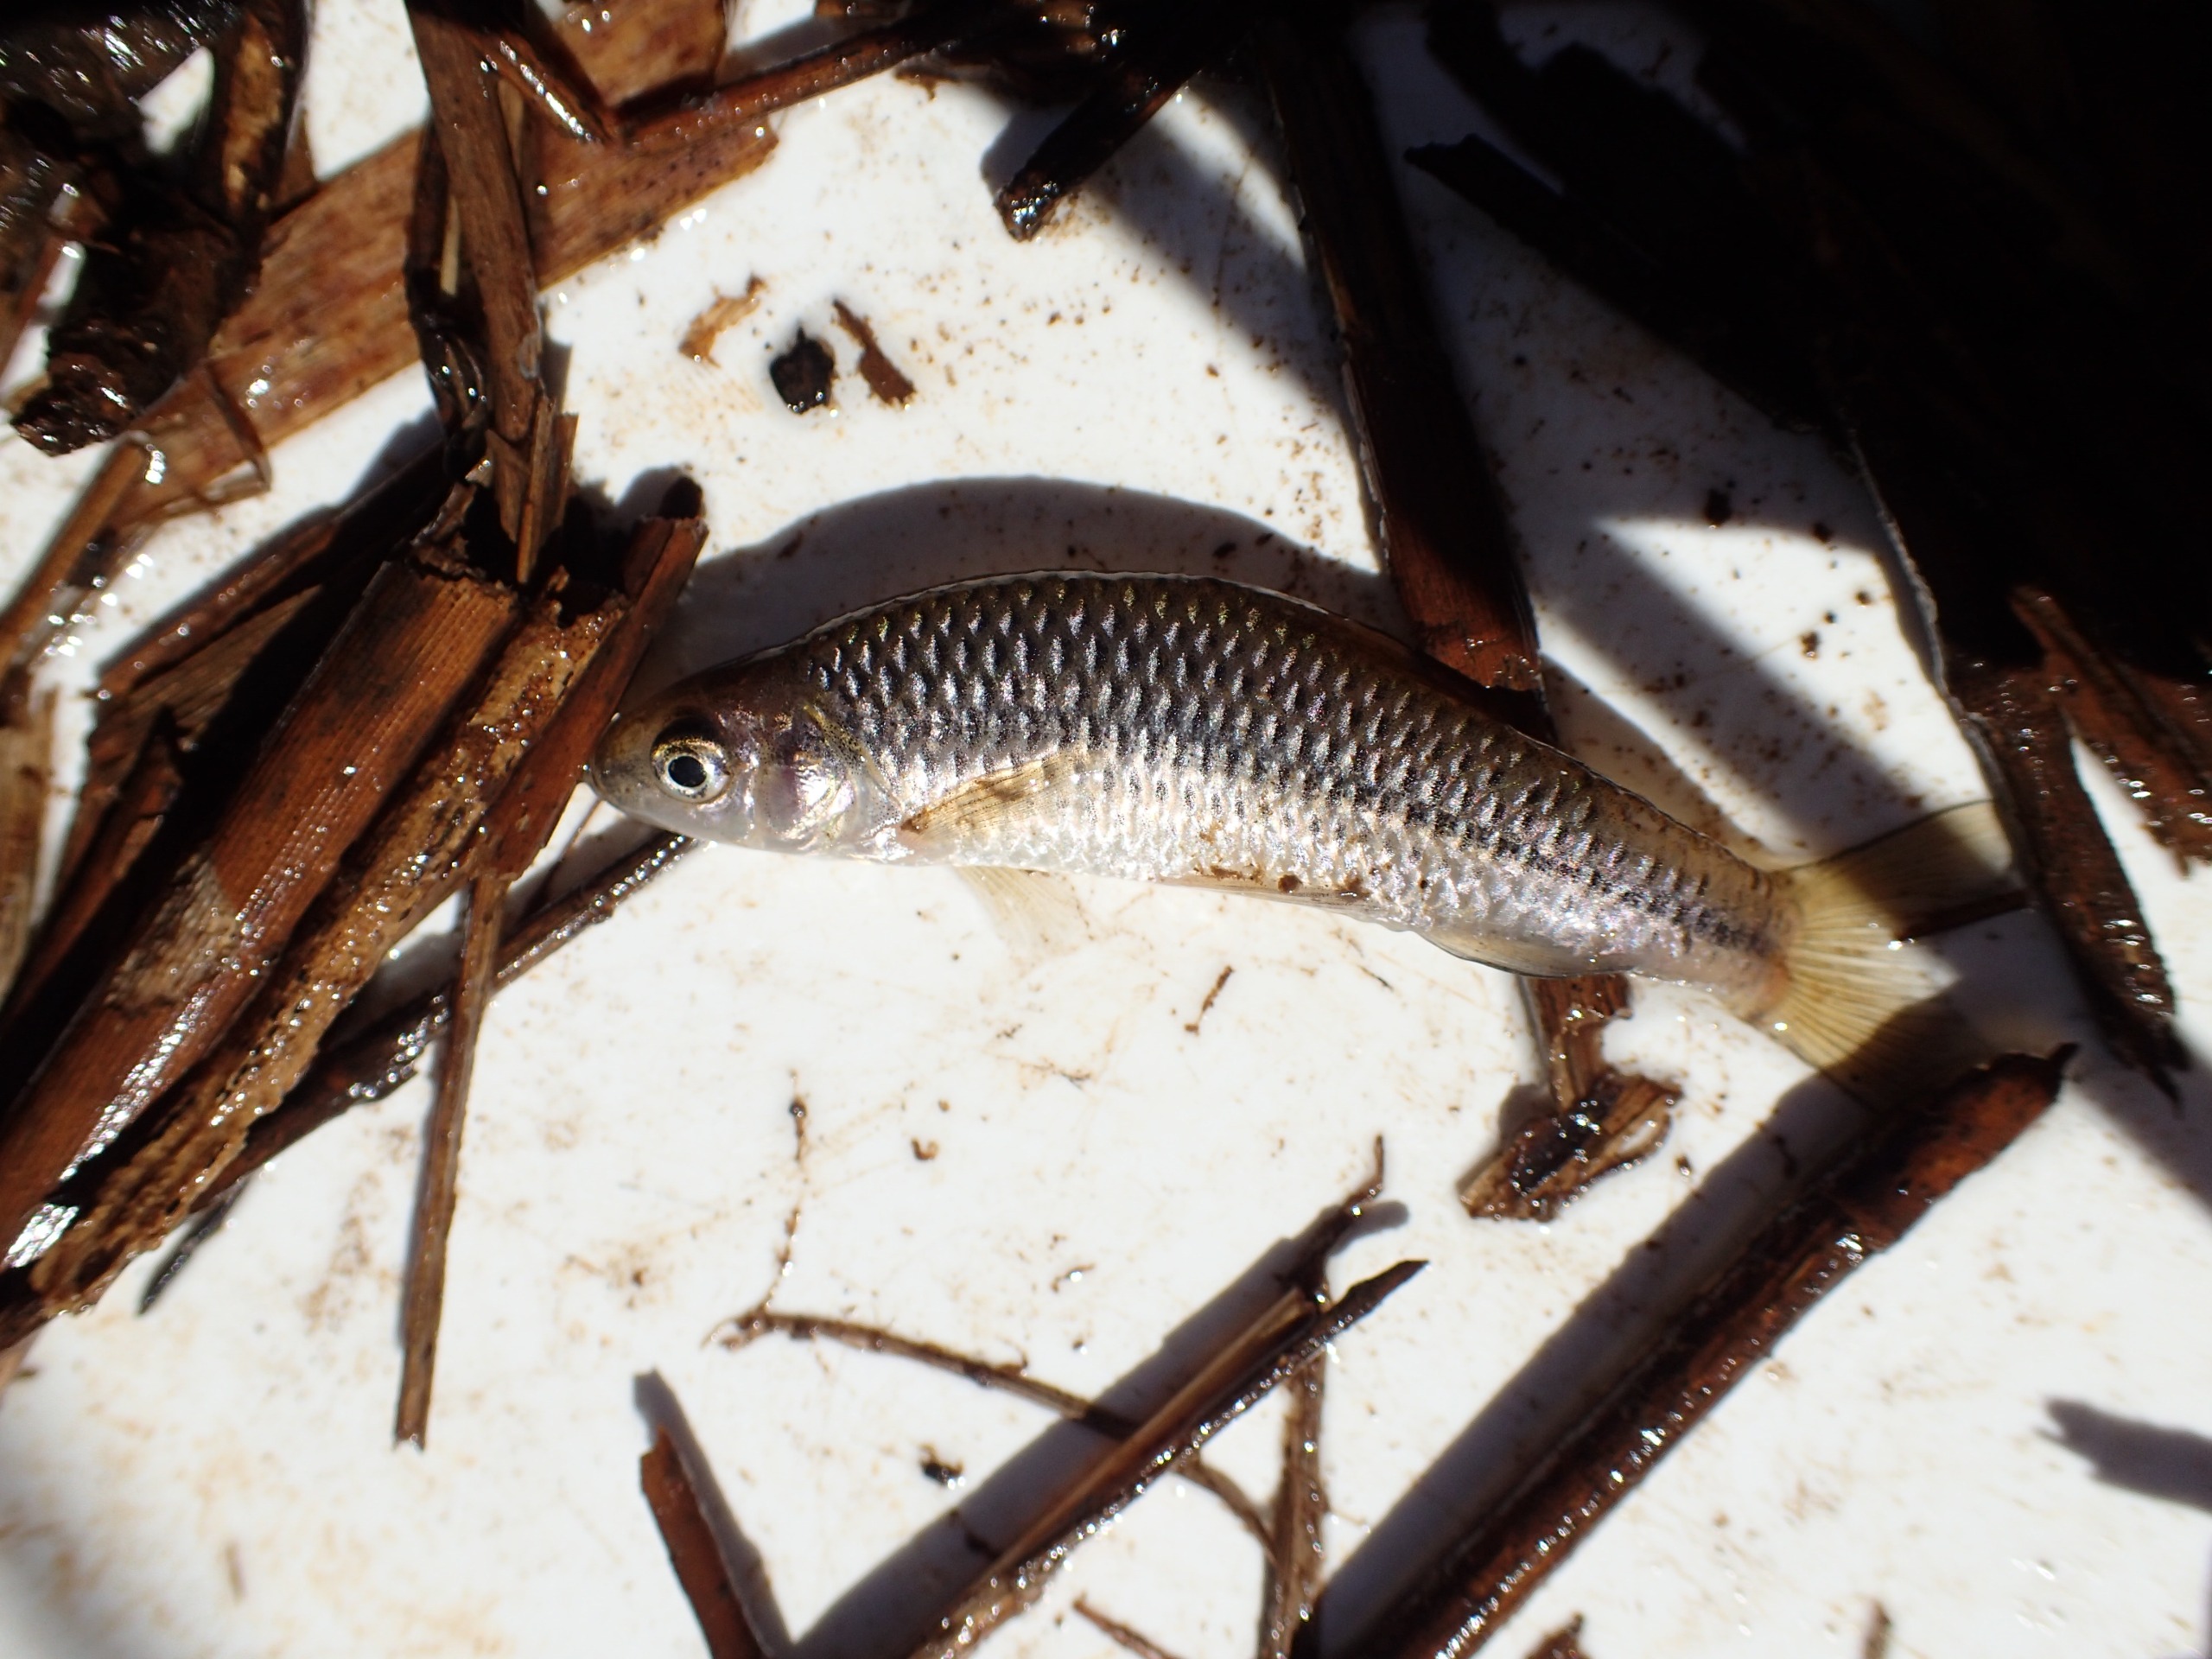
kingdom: Animalia
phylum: Chordata
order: Cypriniformes
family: Cyprinidae
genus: Pseudorasbora
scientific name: Pseudorasbora parva
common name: Båndgrundling
